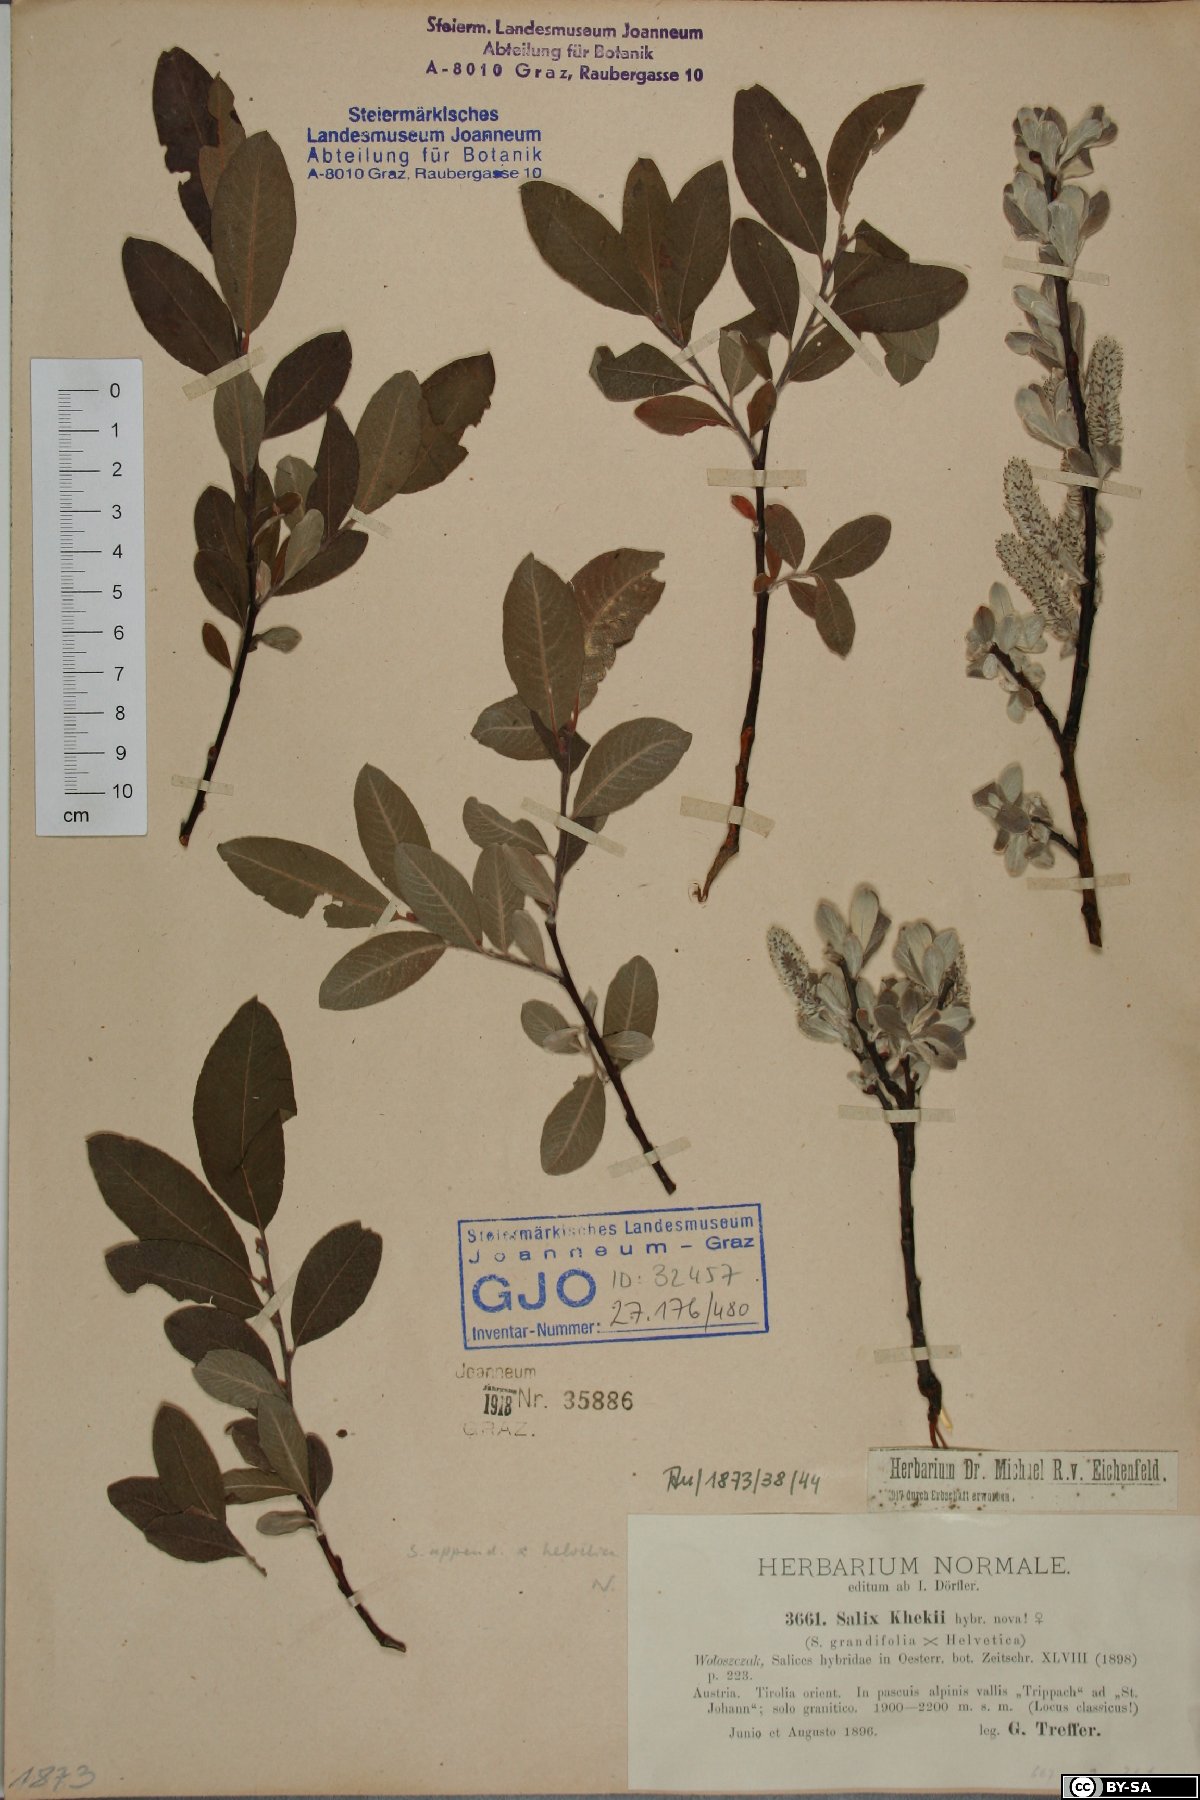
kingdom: Plantae
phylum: Tracheophyta
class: Magnoliopsida
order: Malpighiales
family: Salicaceae
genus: Salix
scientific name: Salix khekii
